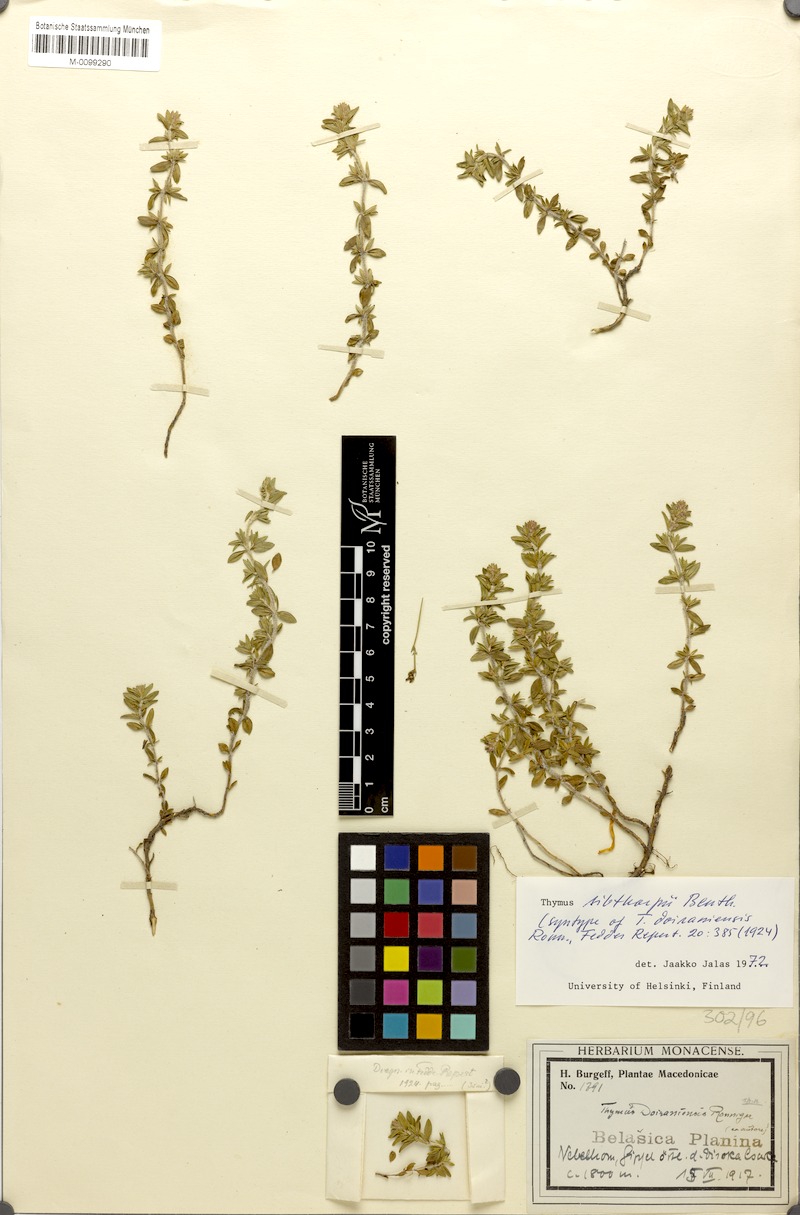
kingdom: Plantae
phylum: Tracheophyta
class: Magnoliopsida
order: Lamiales
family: Lamiaceae
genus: Thymus
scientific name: Thymus sibthorpii
